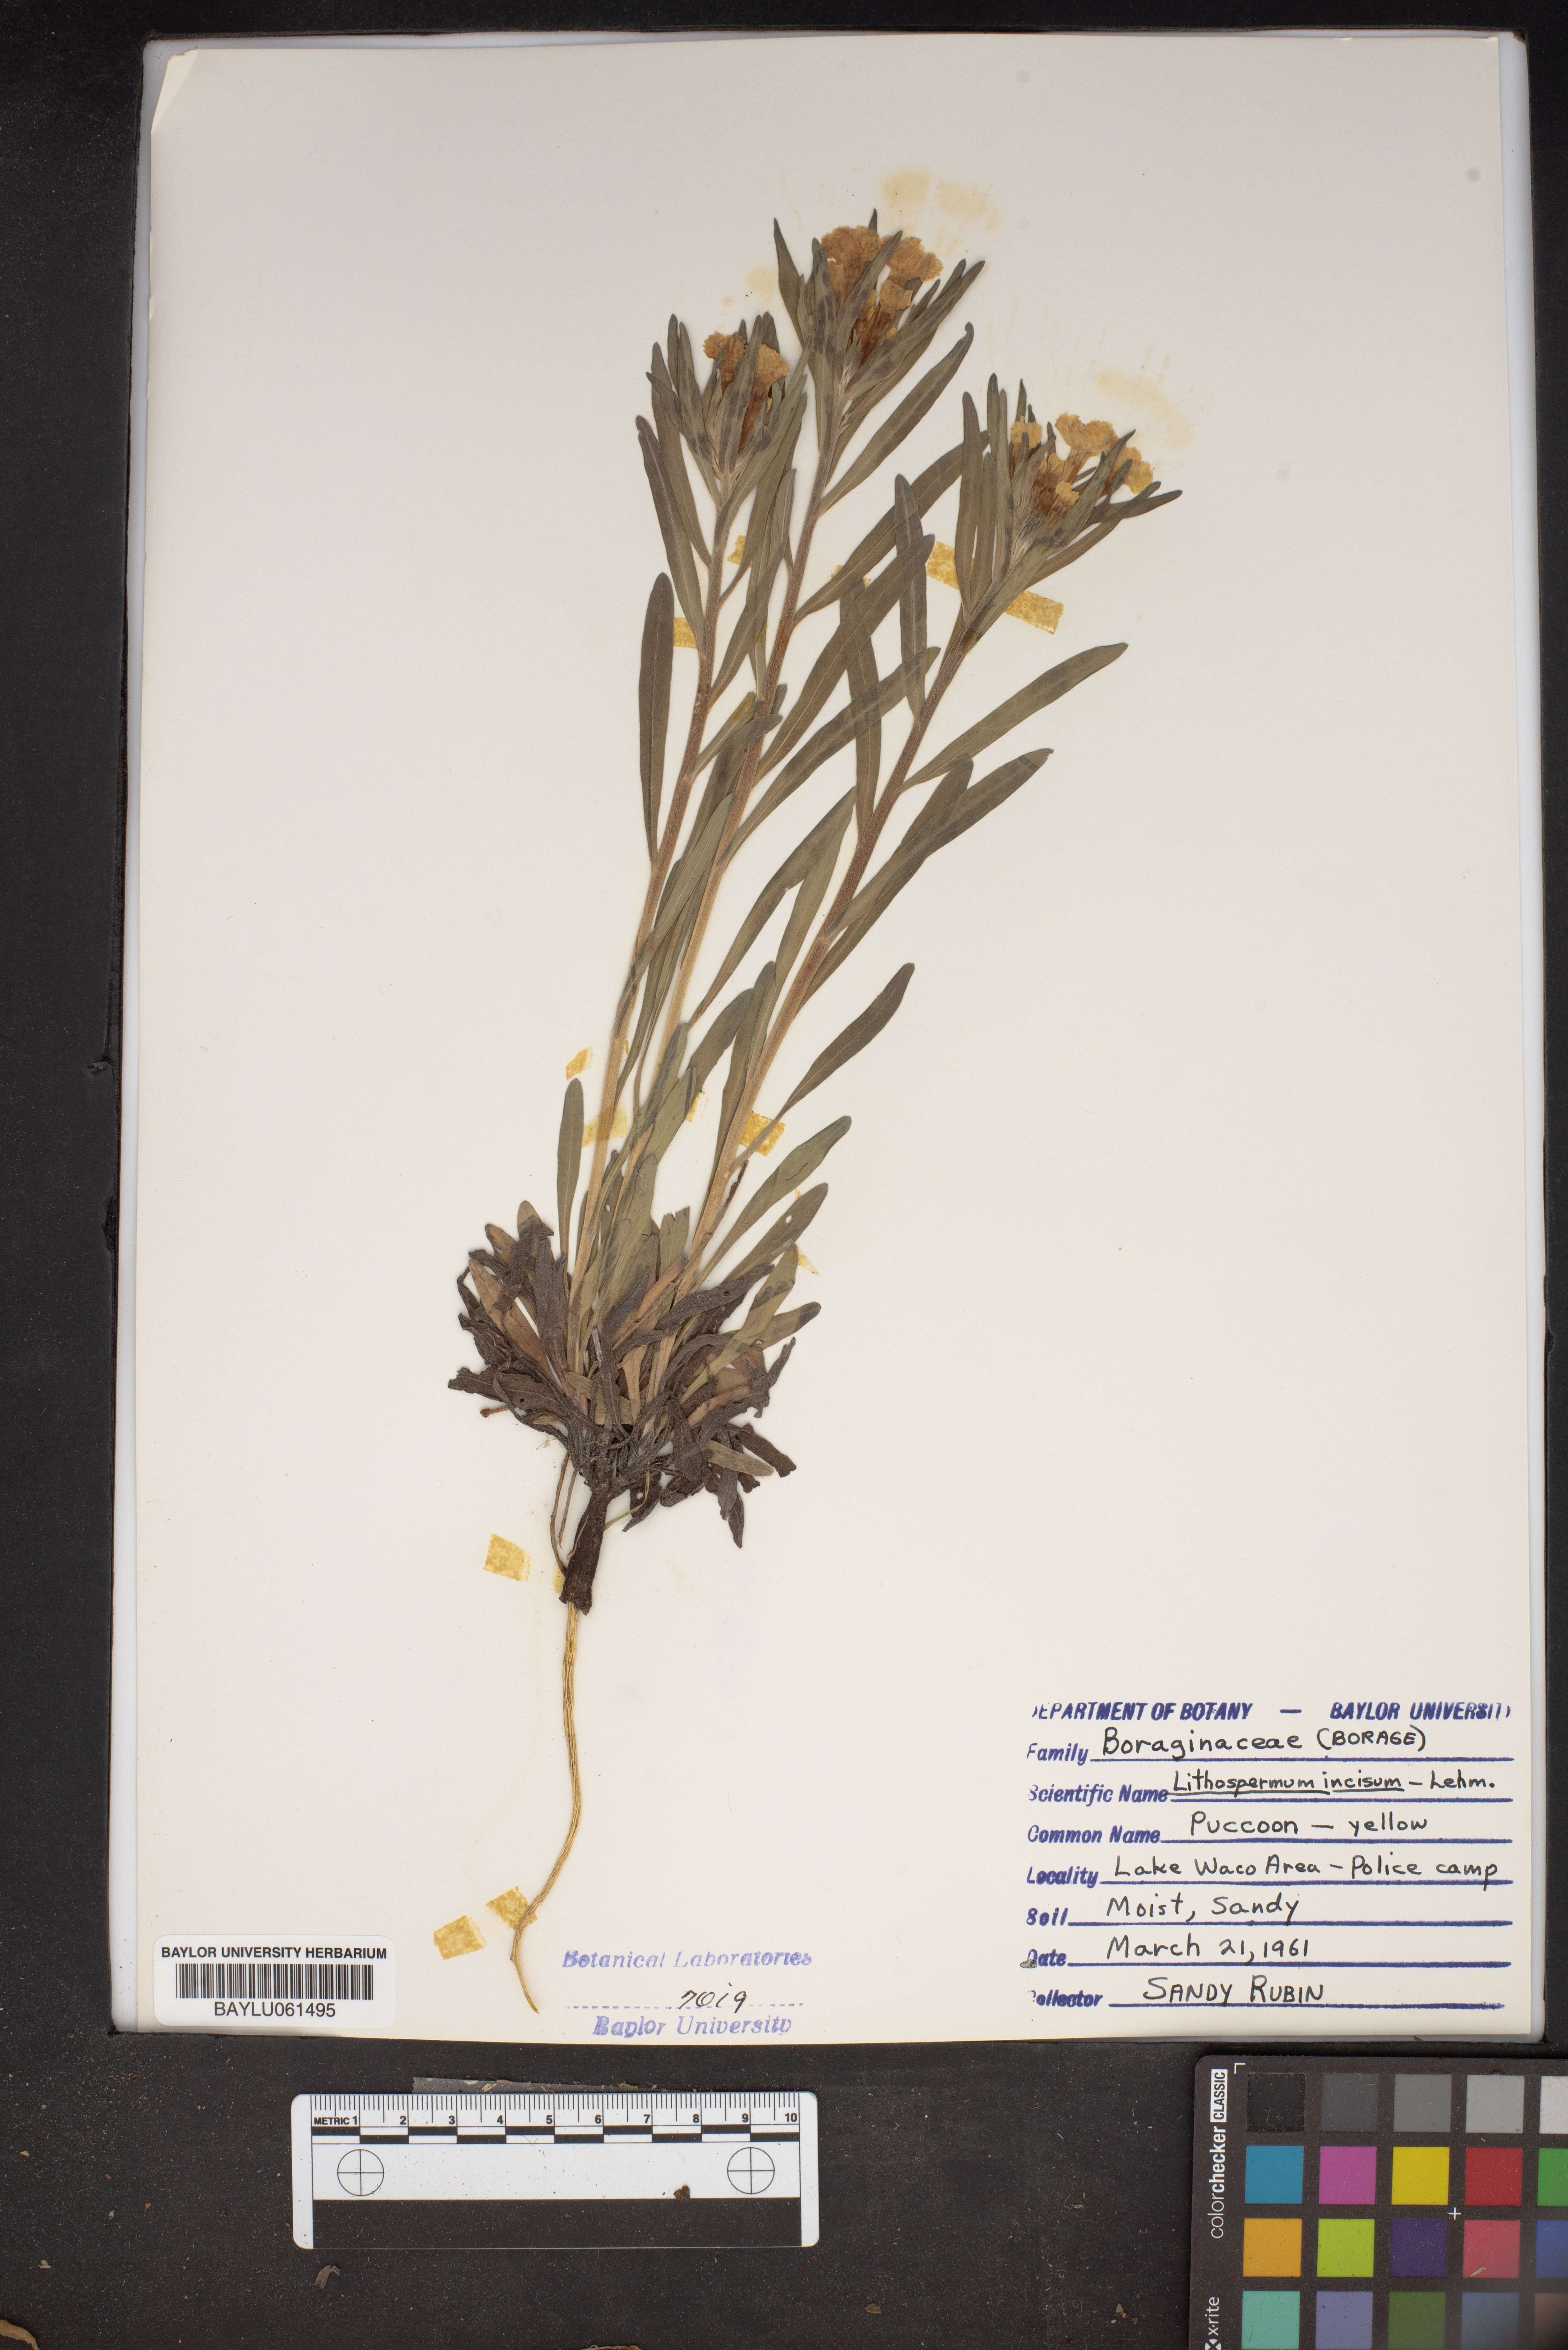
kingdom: Plantae
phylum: Tracheophyta
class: Magnoliopsida
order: Boraginales
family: Boraginaceae
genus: Lithospermum
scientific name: Lithospermum incisum
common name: Fringed gromwell
